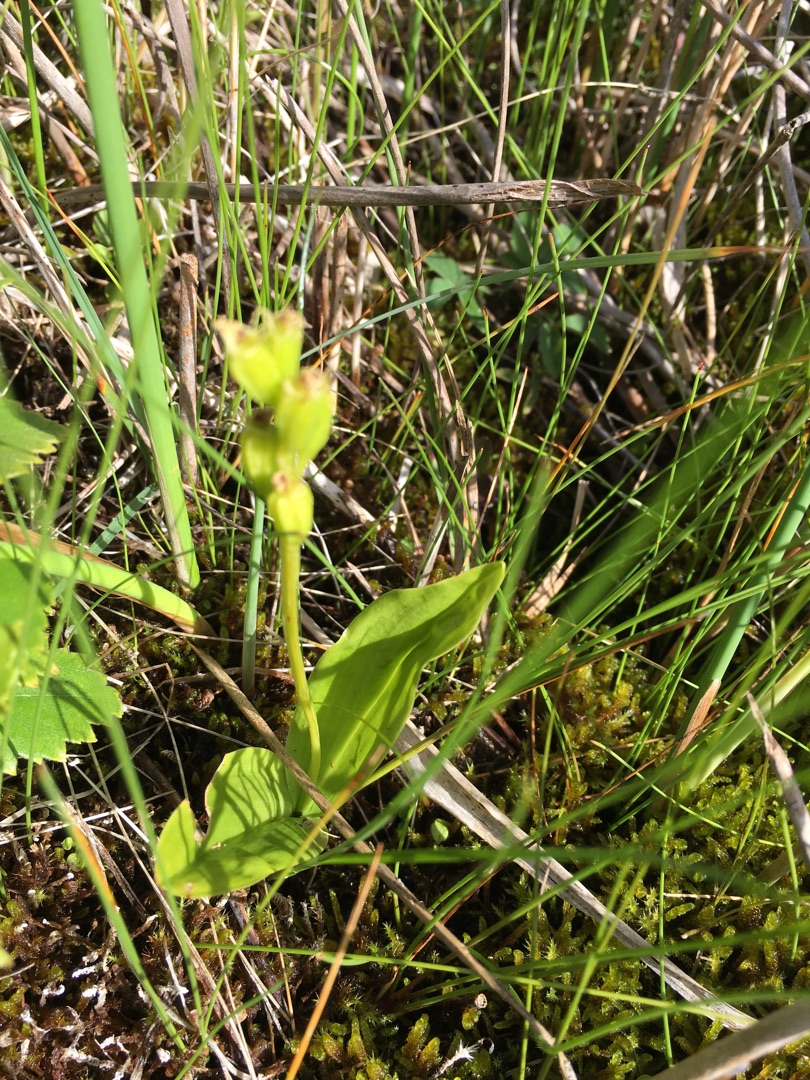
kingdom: Animalia
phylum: Arthropoda
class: Insecta
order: Coleoptera
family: Curculionidae
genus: Liparis
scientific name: Liparis loeselii
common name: Mygblomst
